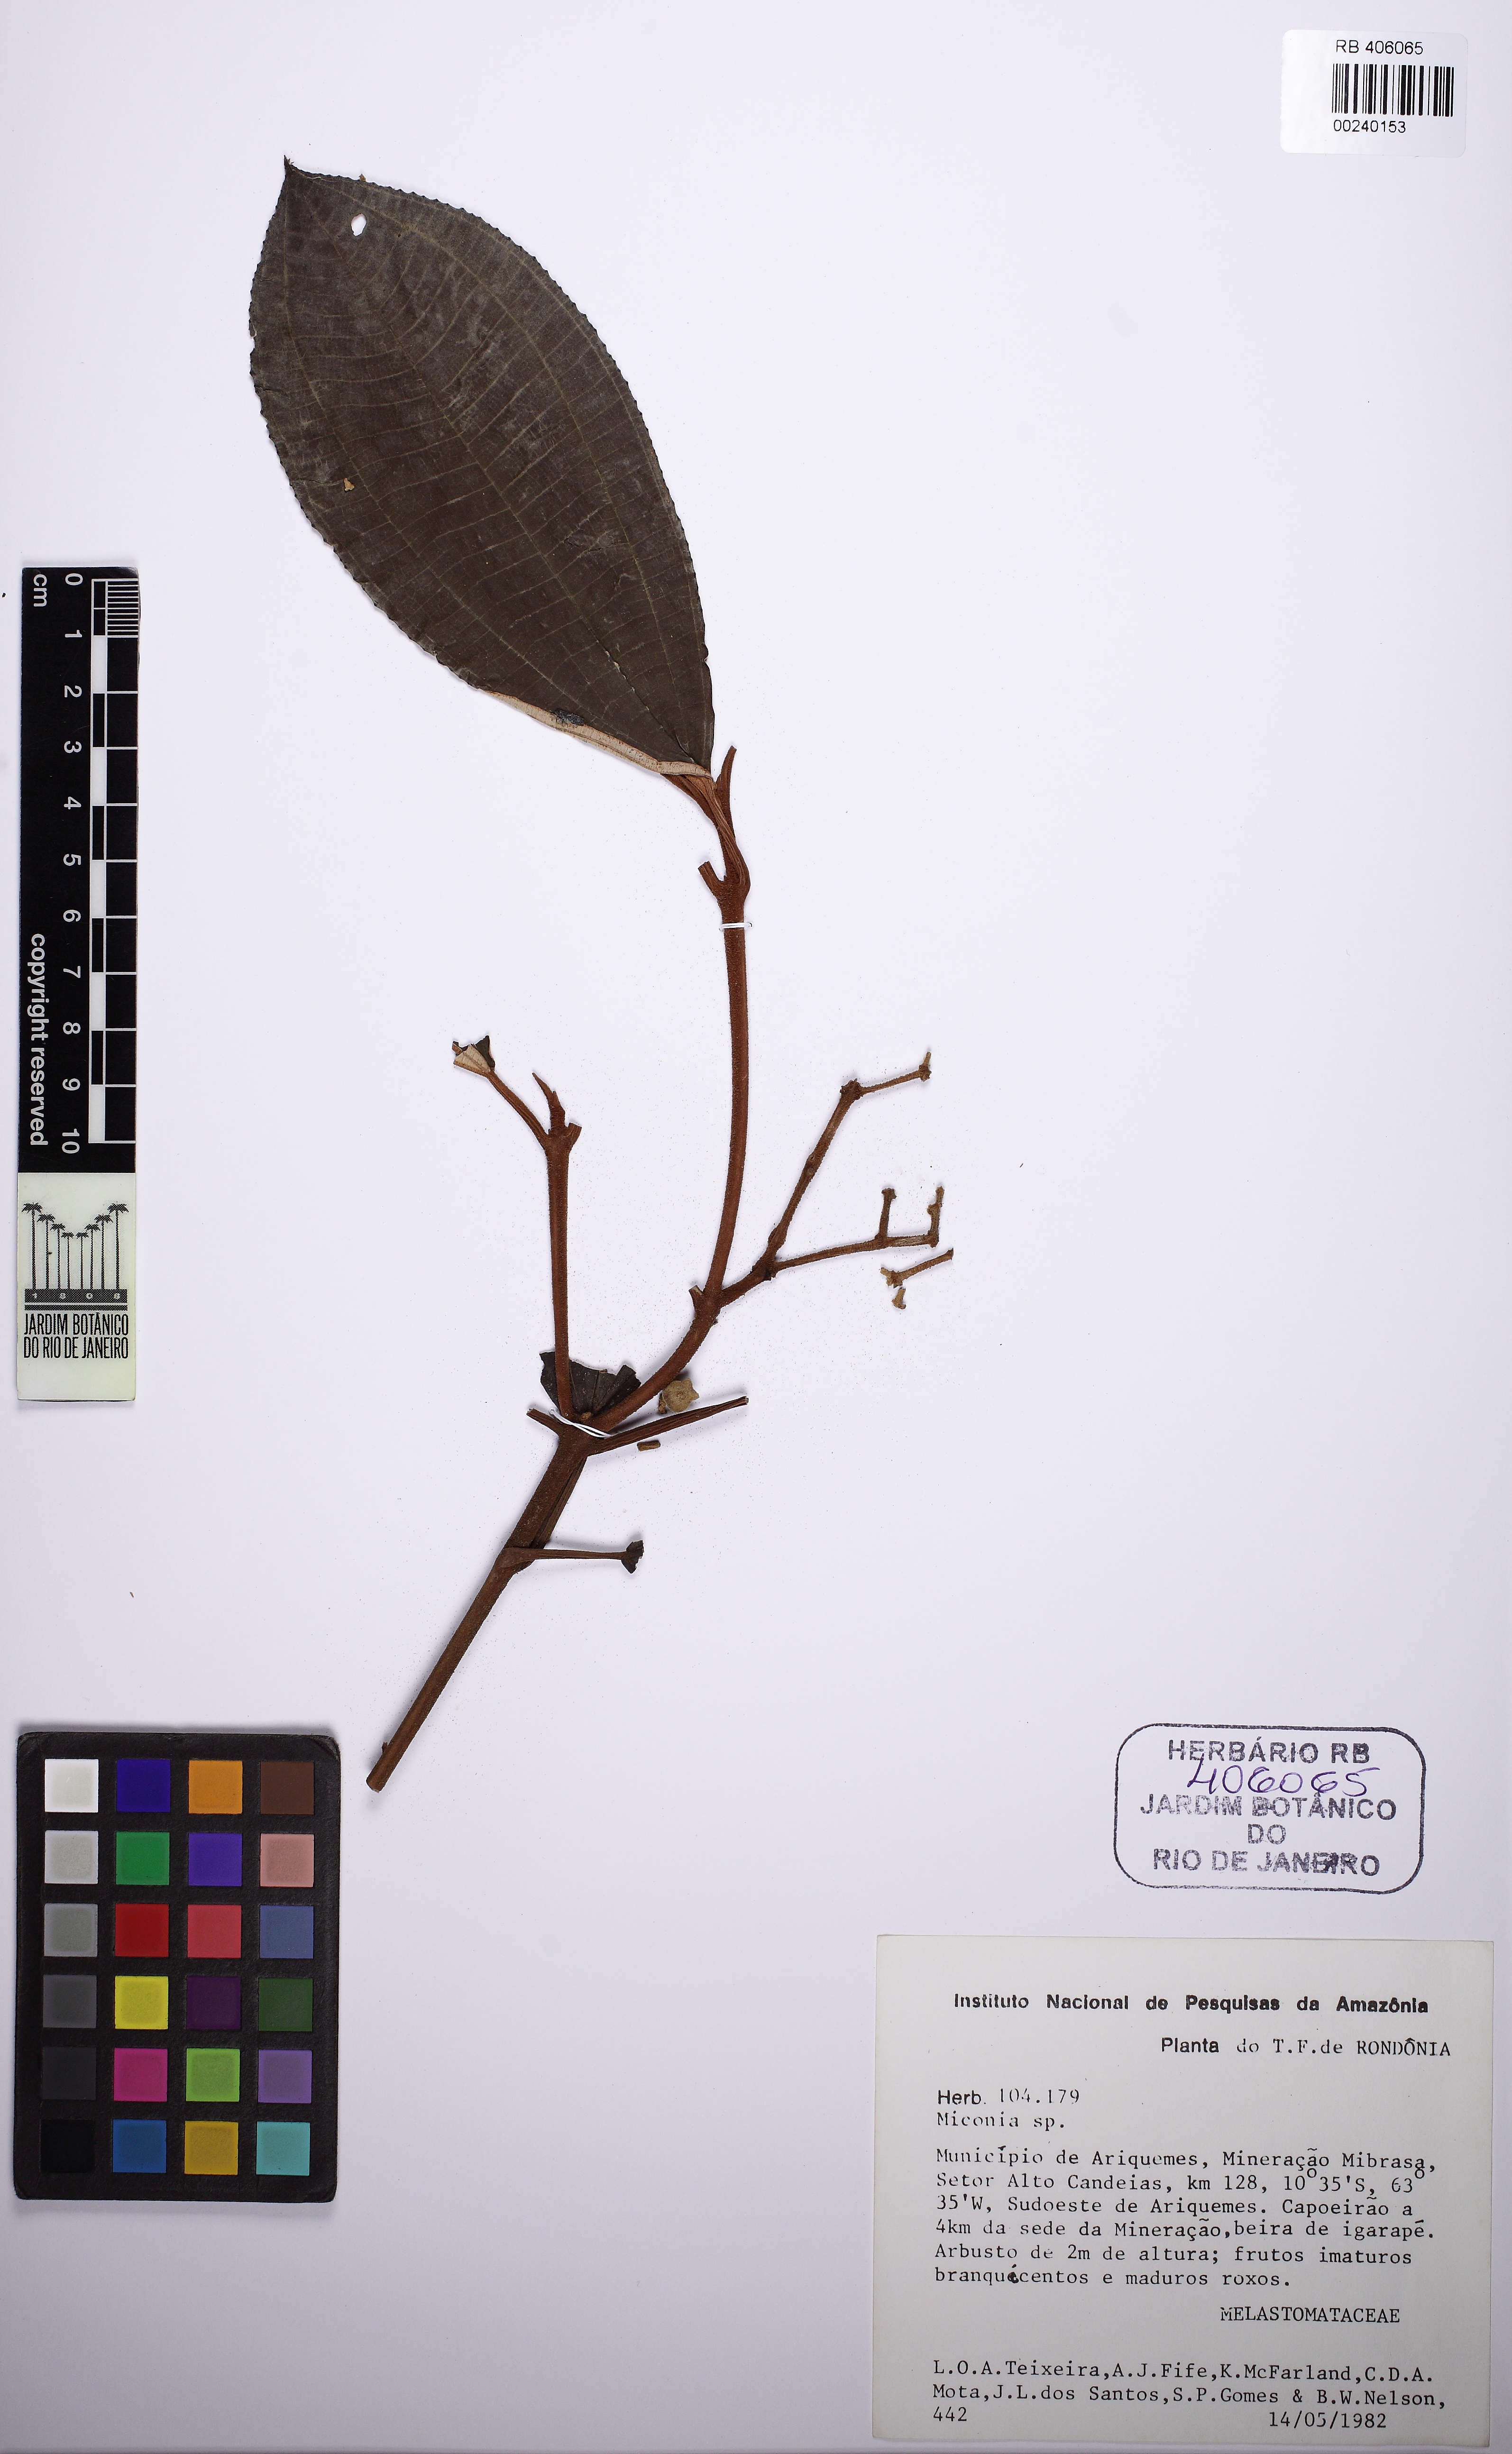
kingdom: Plantae
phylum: Tracheophyta
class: Magnoliopsida
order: Myrtales
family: Melastomataceae
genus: Miconia
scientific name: Miconia
